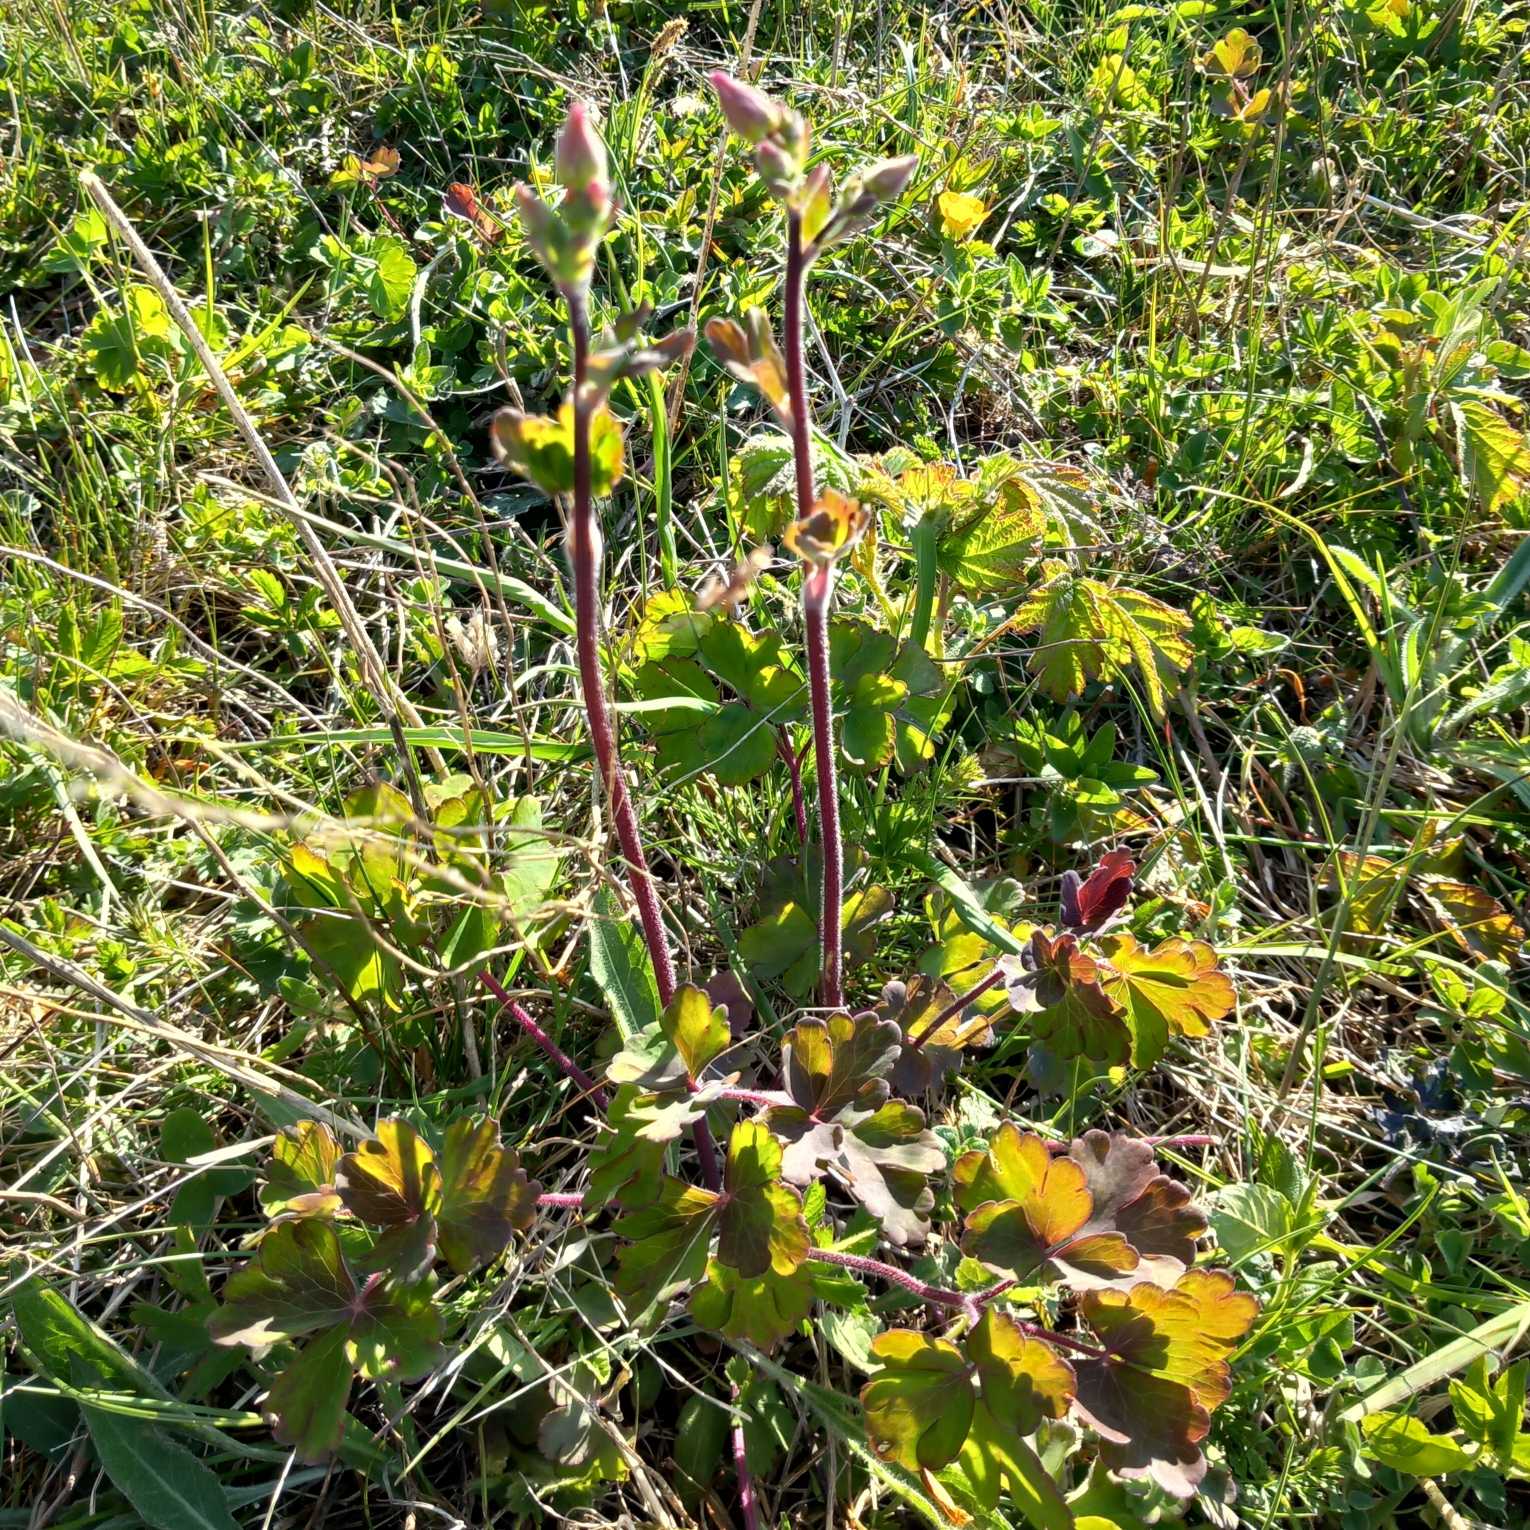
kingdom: Plantae
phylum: Tracheophyta
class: Magnoliopsida
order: Ranunculales
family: Ranunculaceae
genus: Aquilegia
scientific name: Aquilegia vulgaris
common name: Akeleje
